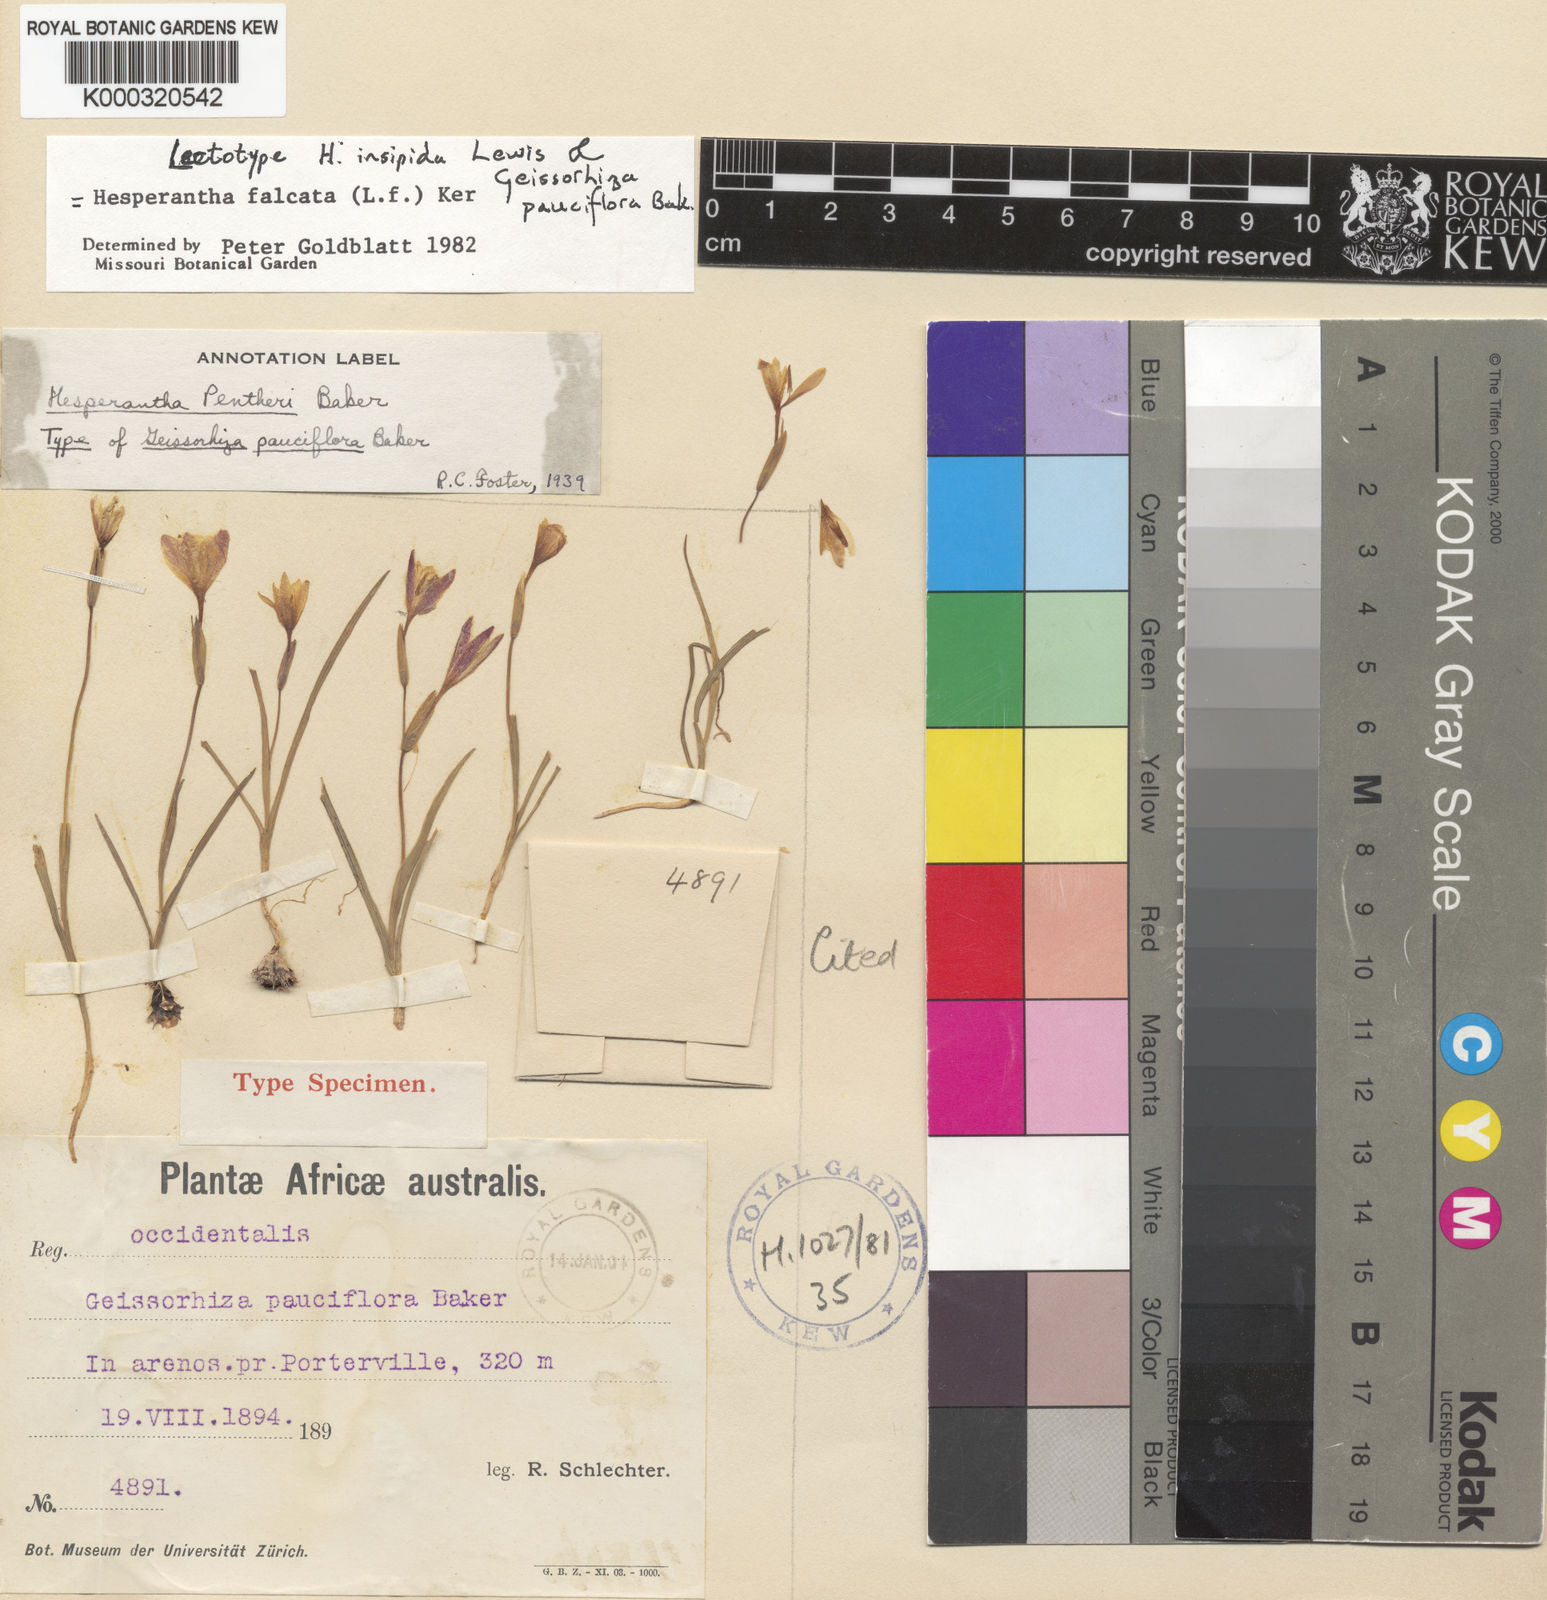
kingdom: Plantae
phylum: Tracheophyta
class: Liliopsida
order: Asparagales
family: Iridaceae
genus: Hesperantha
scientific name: Hesperantha falcata
